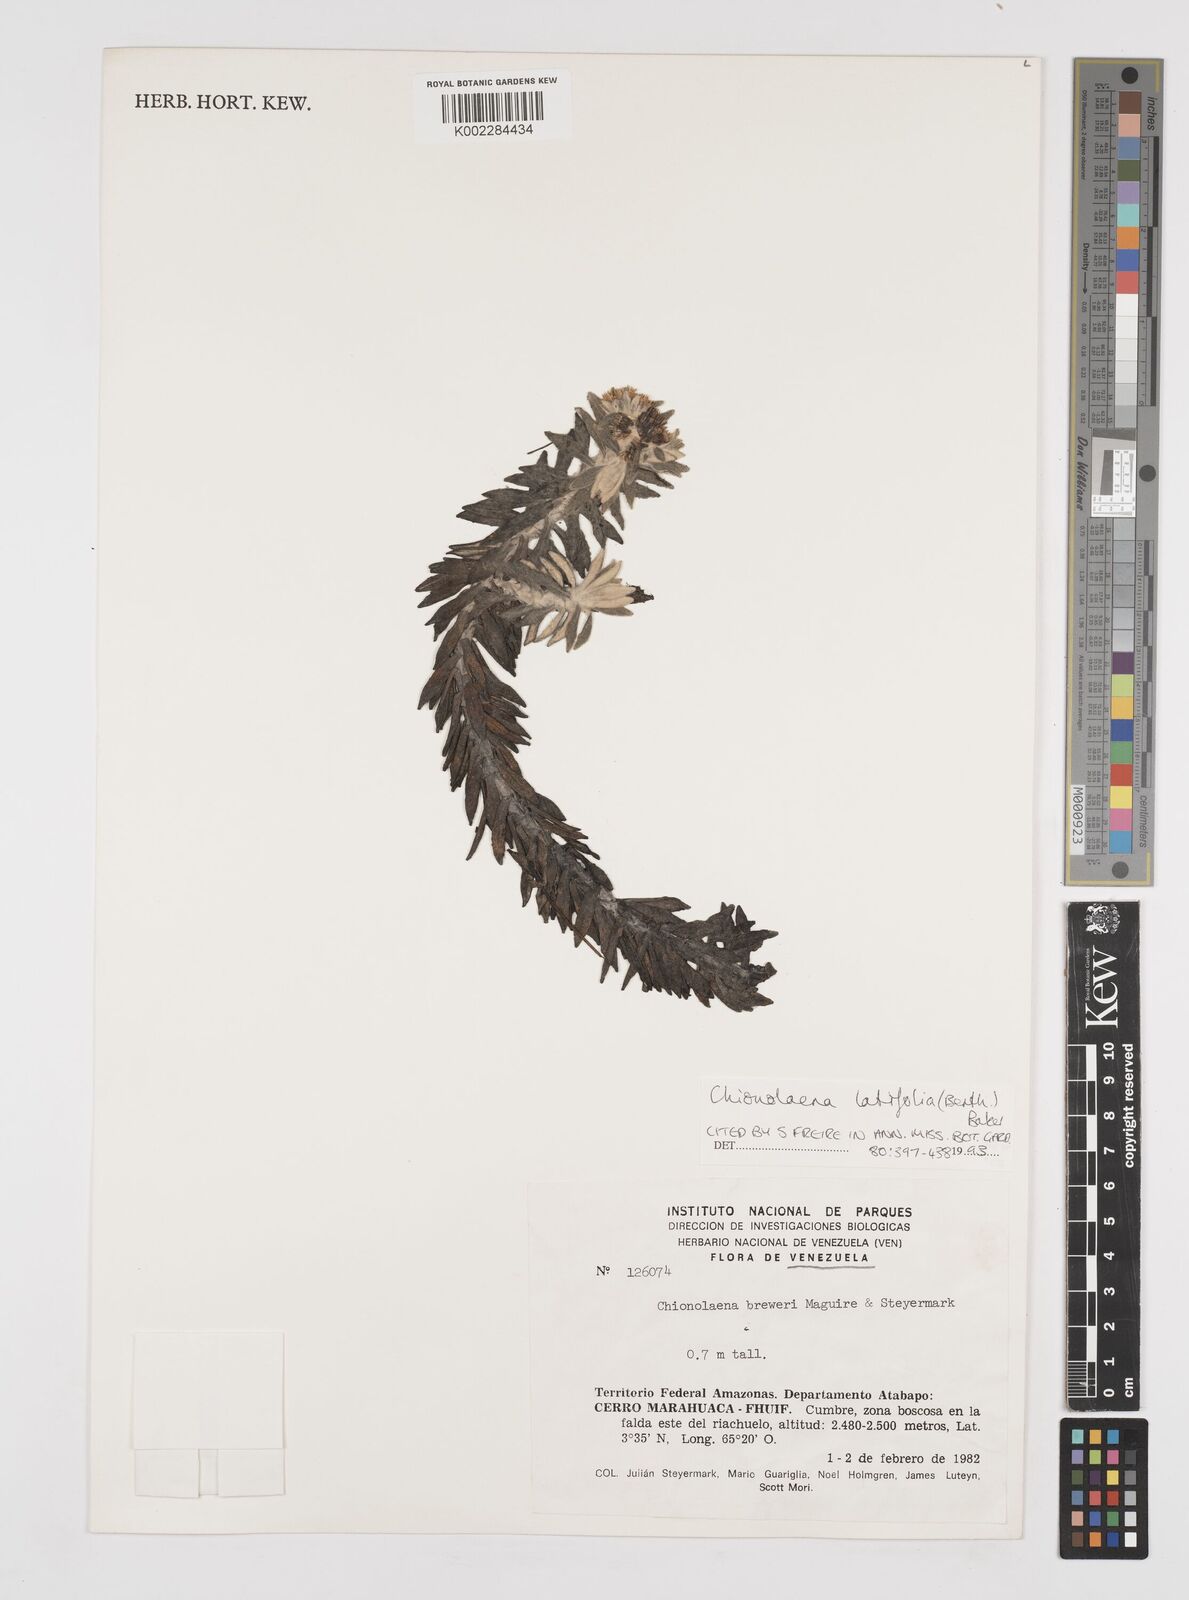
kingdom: Plantae
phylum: Tracheophyta
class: Magnoliopsida
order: Asterales
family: Asteraceae
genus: Chionolaena
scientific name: Chionolaena latifolia
